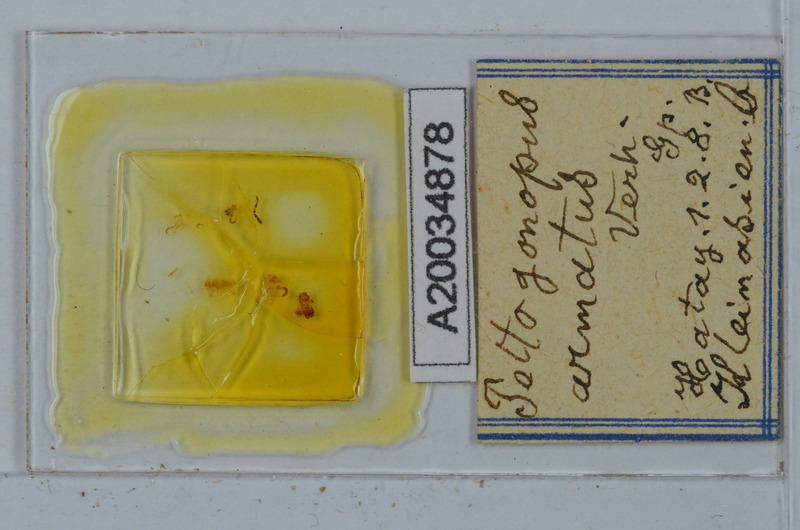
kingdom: Animalia
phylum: Arthropoda
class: Diplopoda
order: Polydesmida
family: Polydesmidae
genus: Peltogonopus
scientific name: Peltogonopus armatus
